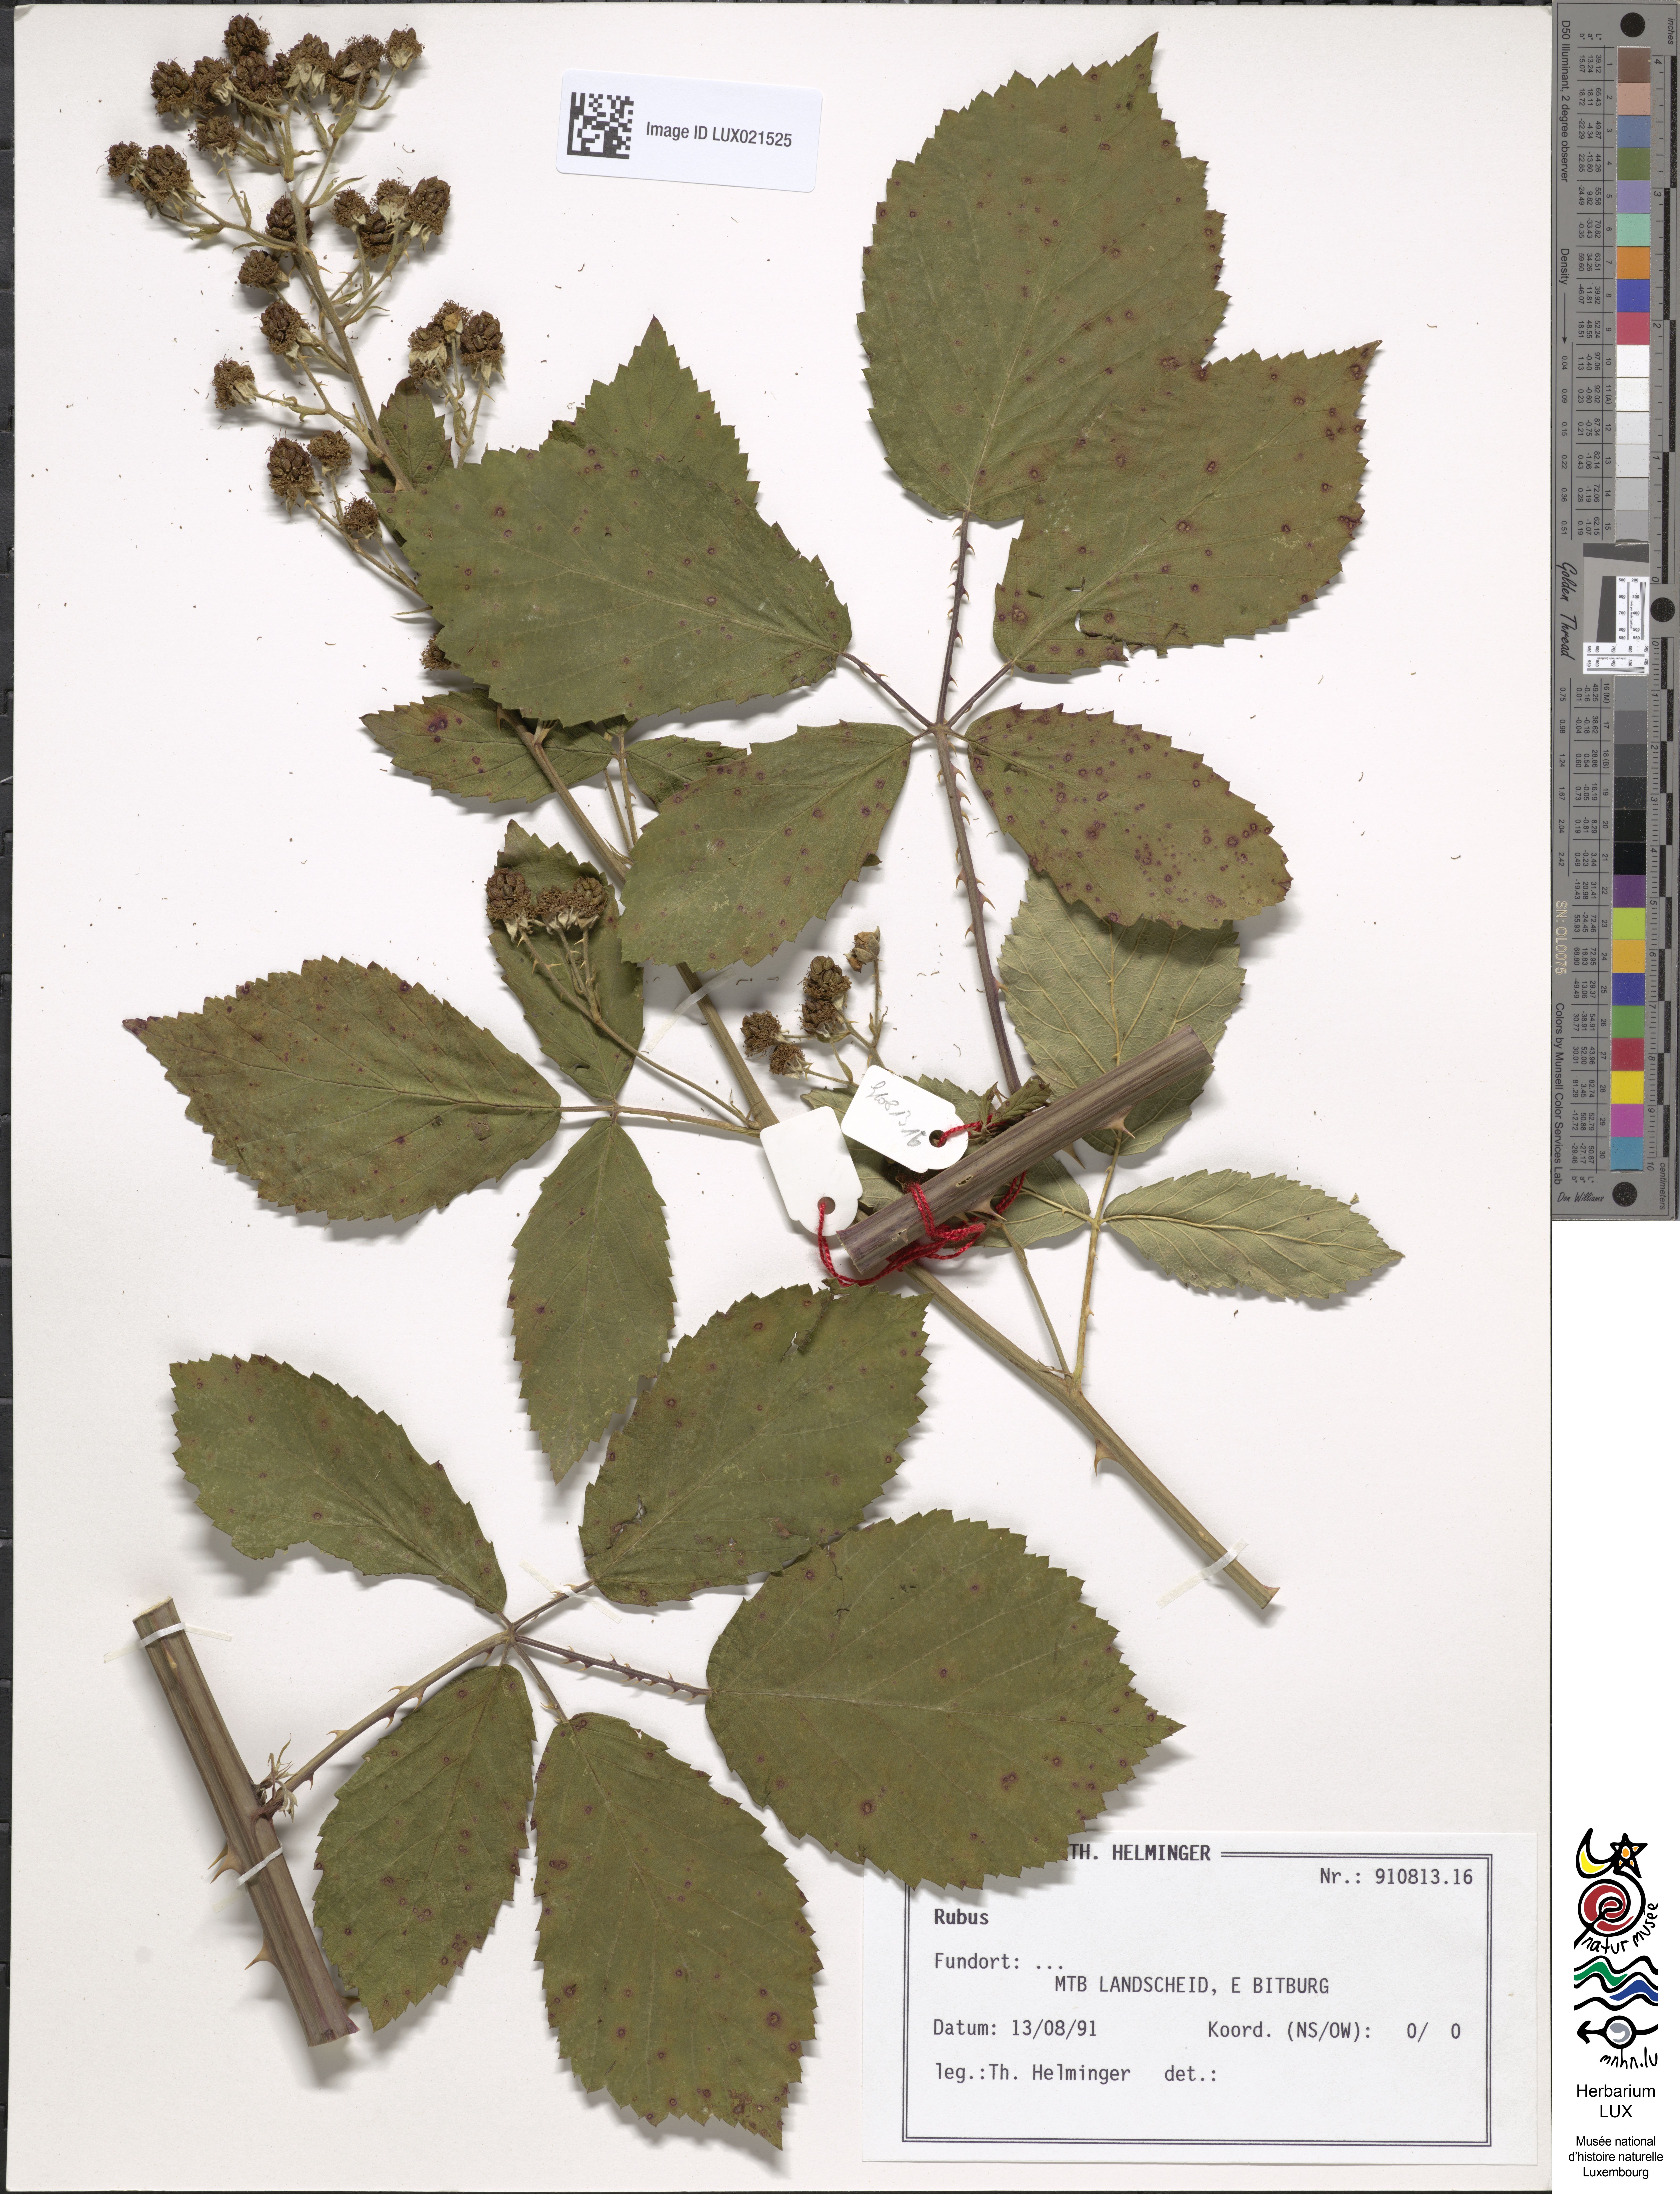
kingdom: Plantae
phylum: Tracheophyta
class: Magnoliopsida
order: Rosales
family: Rosaceae
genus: Rubus
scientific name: Rubus
